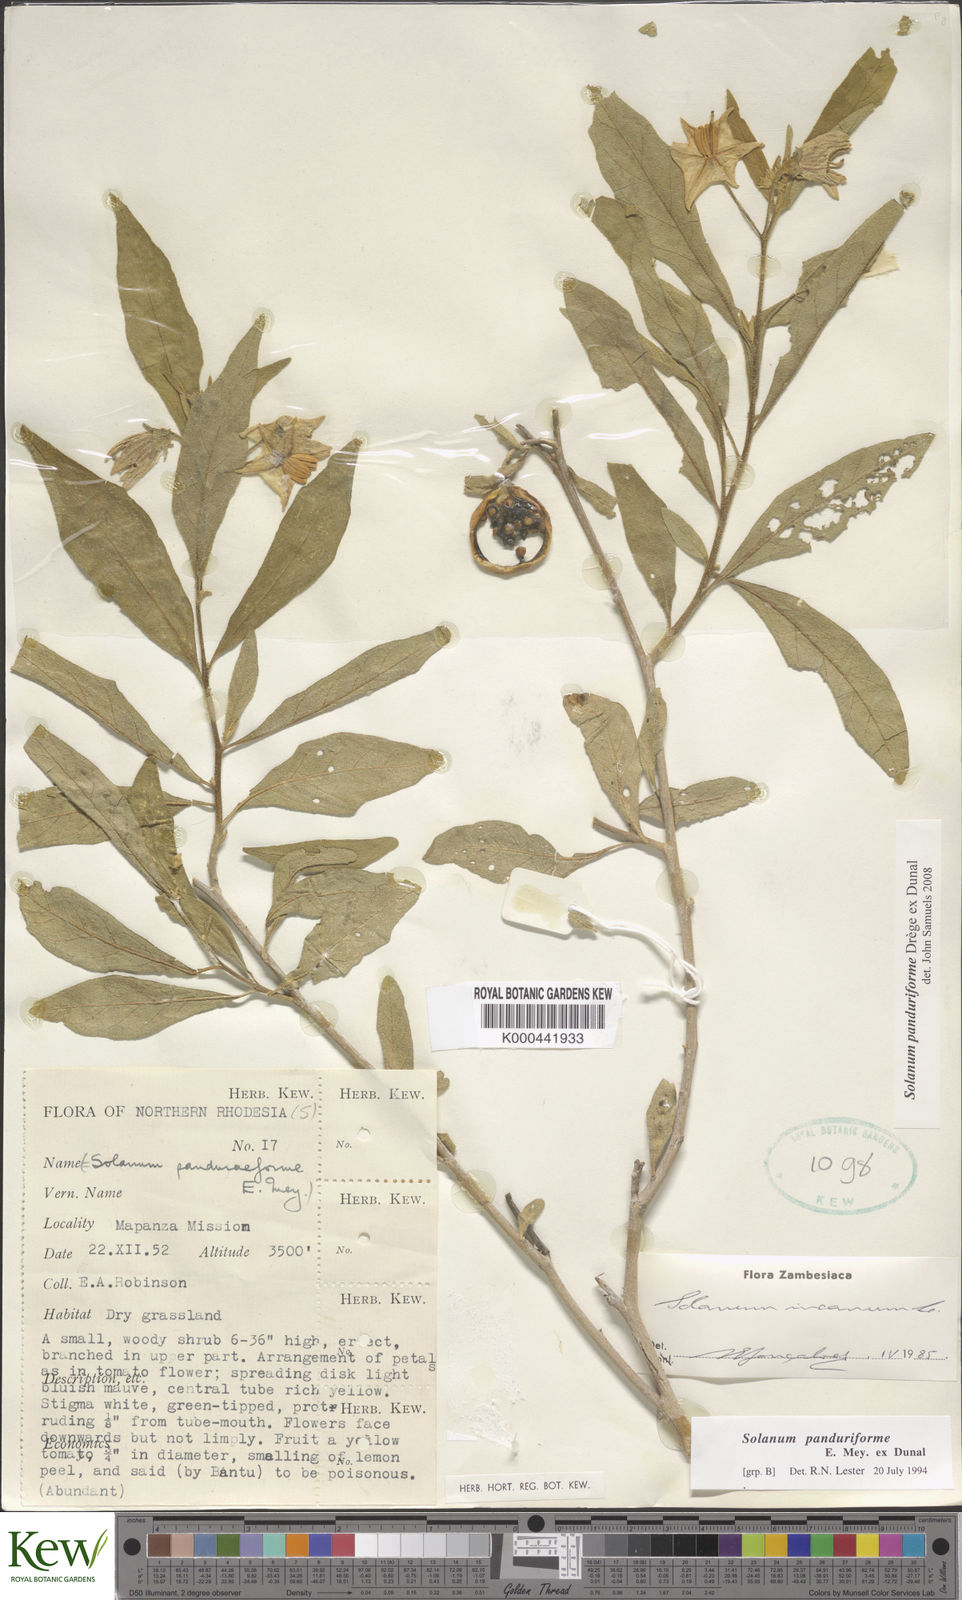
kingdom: Plantae
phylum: Tracheophyta
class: Magnoliopsida
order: Solanales
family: Solanaceae
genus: Solanum
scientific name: Solanum campylacanthum
